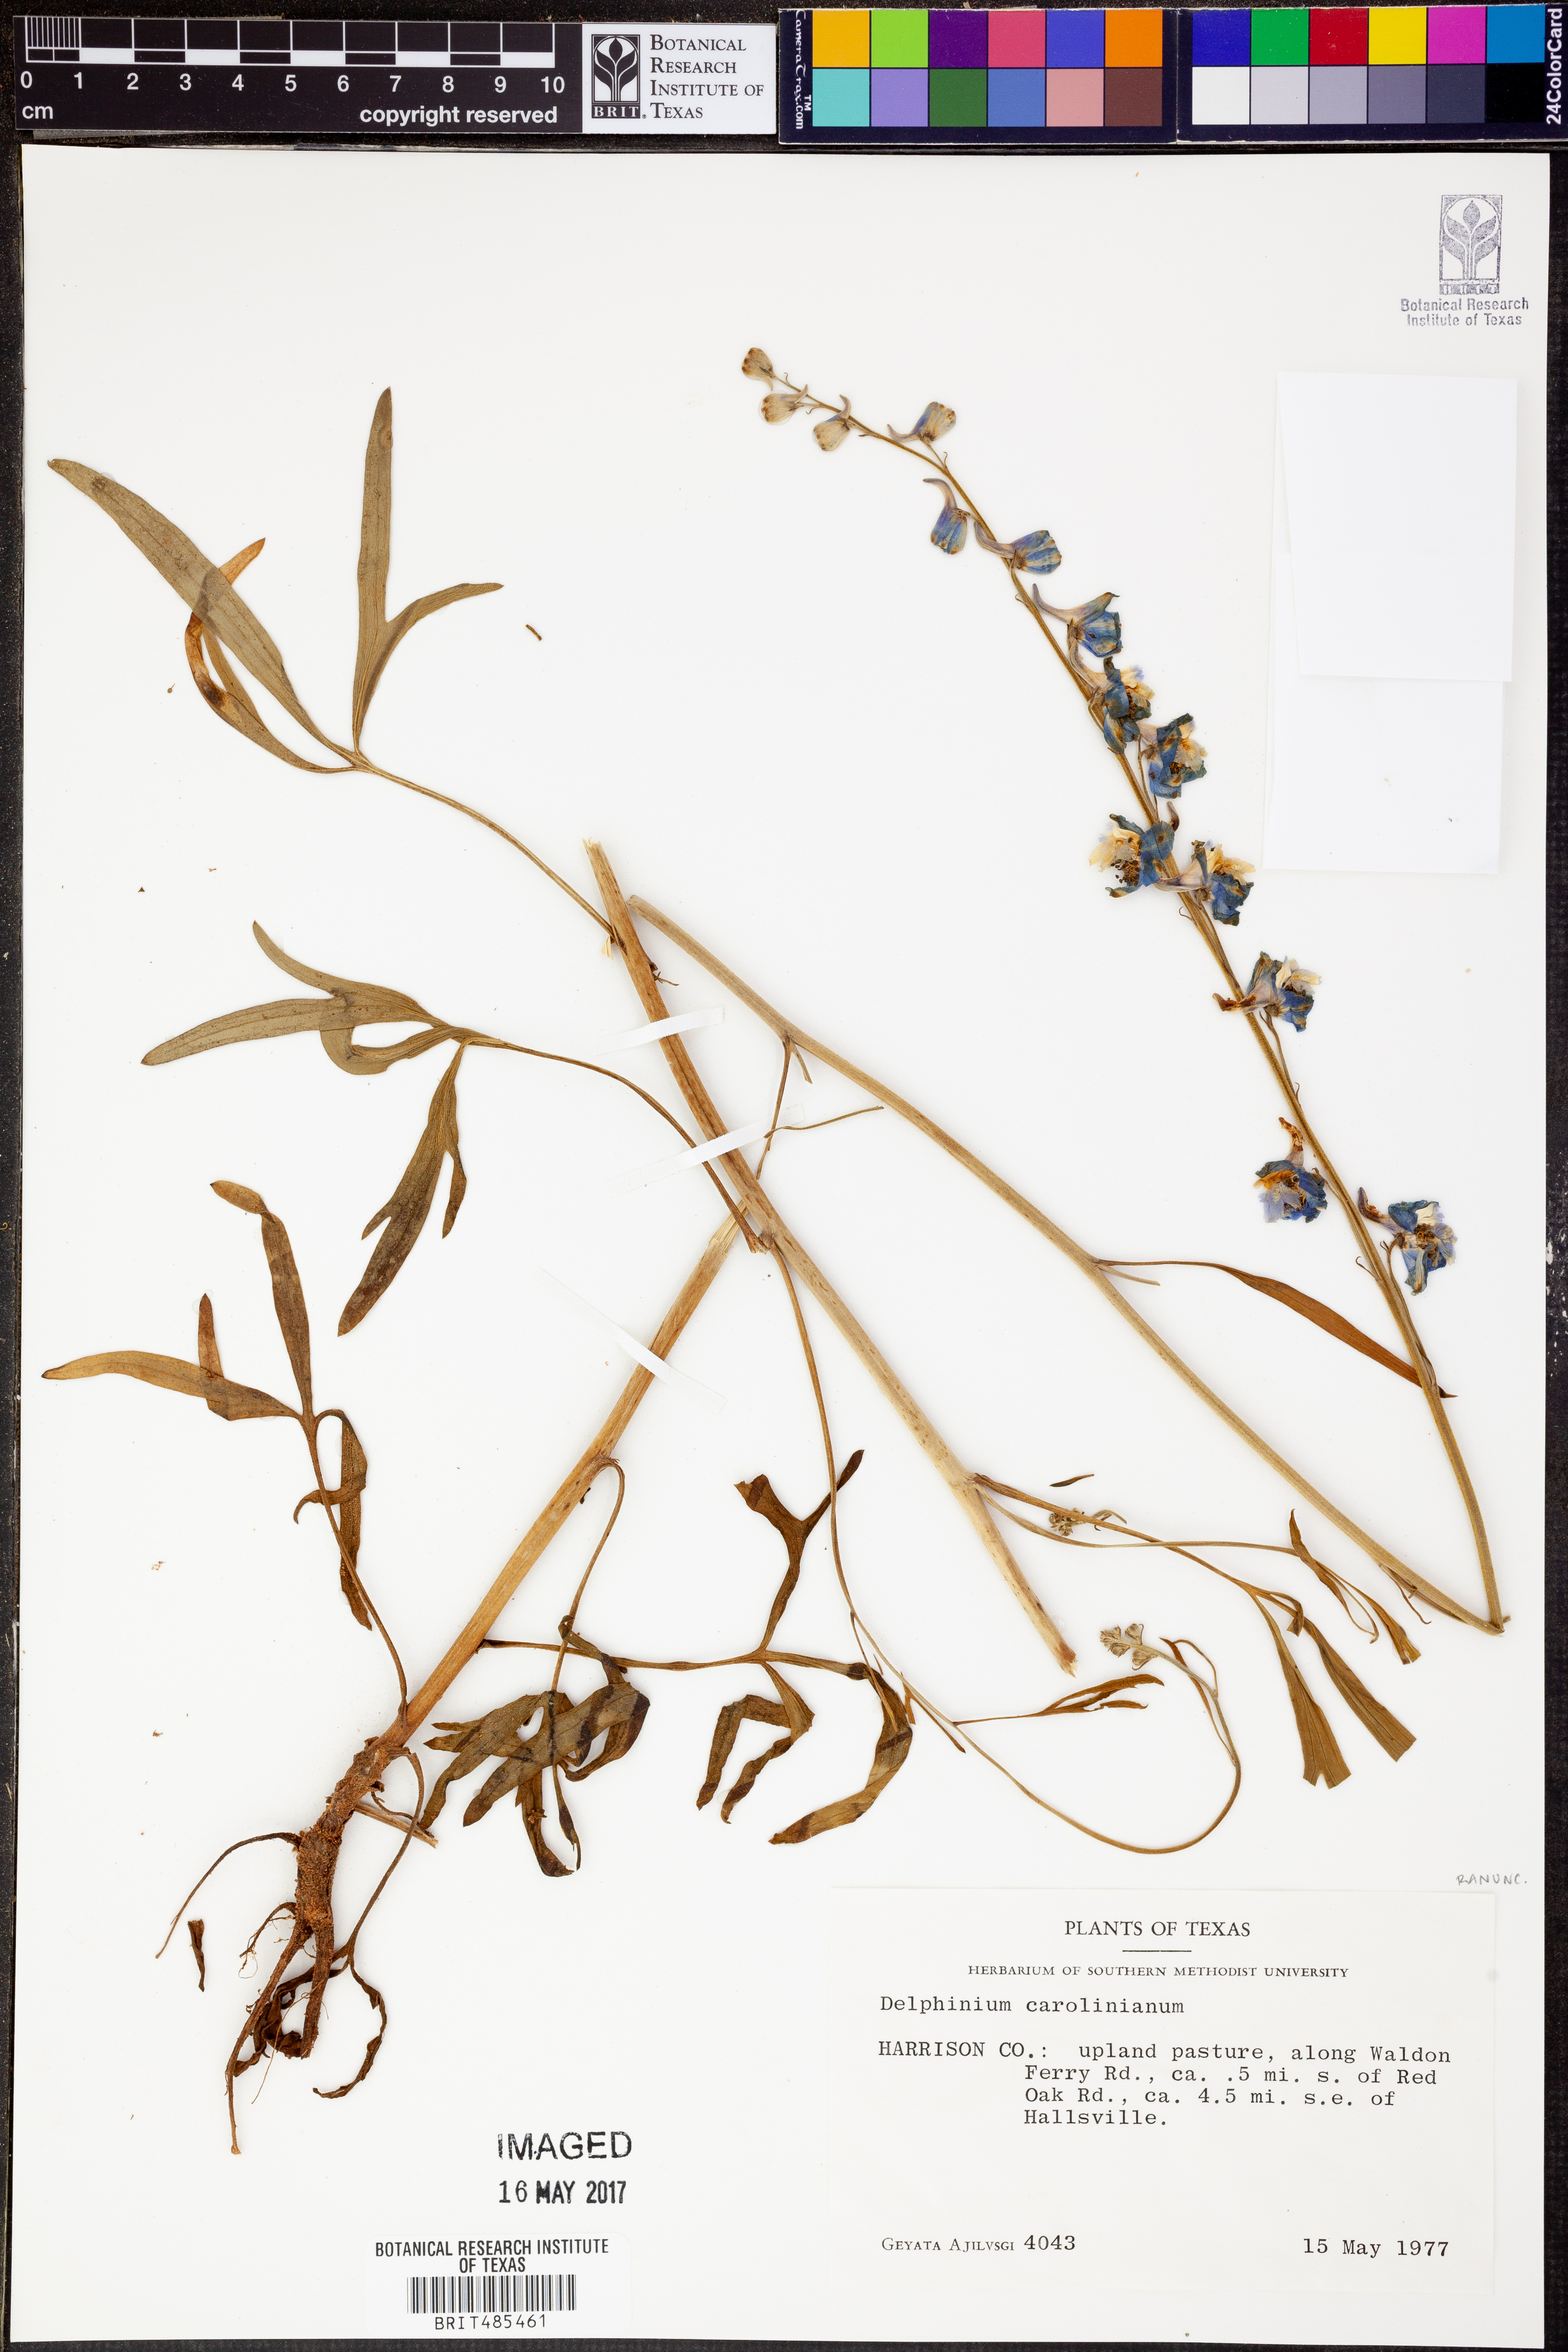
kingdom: Plantae
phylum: Tracheophyta
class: Magnoliopsida
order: Ranunculales
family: Ranunculaceae
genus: Delphinium
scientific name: Delphinium carolinianum
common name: Carolina larkspur
